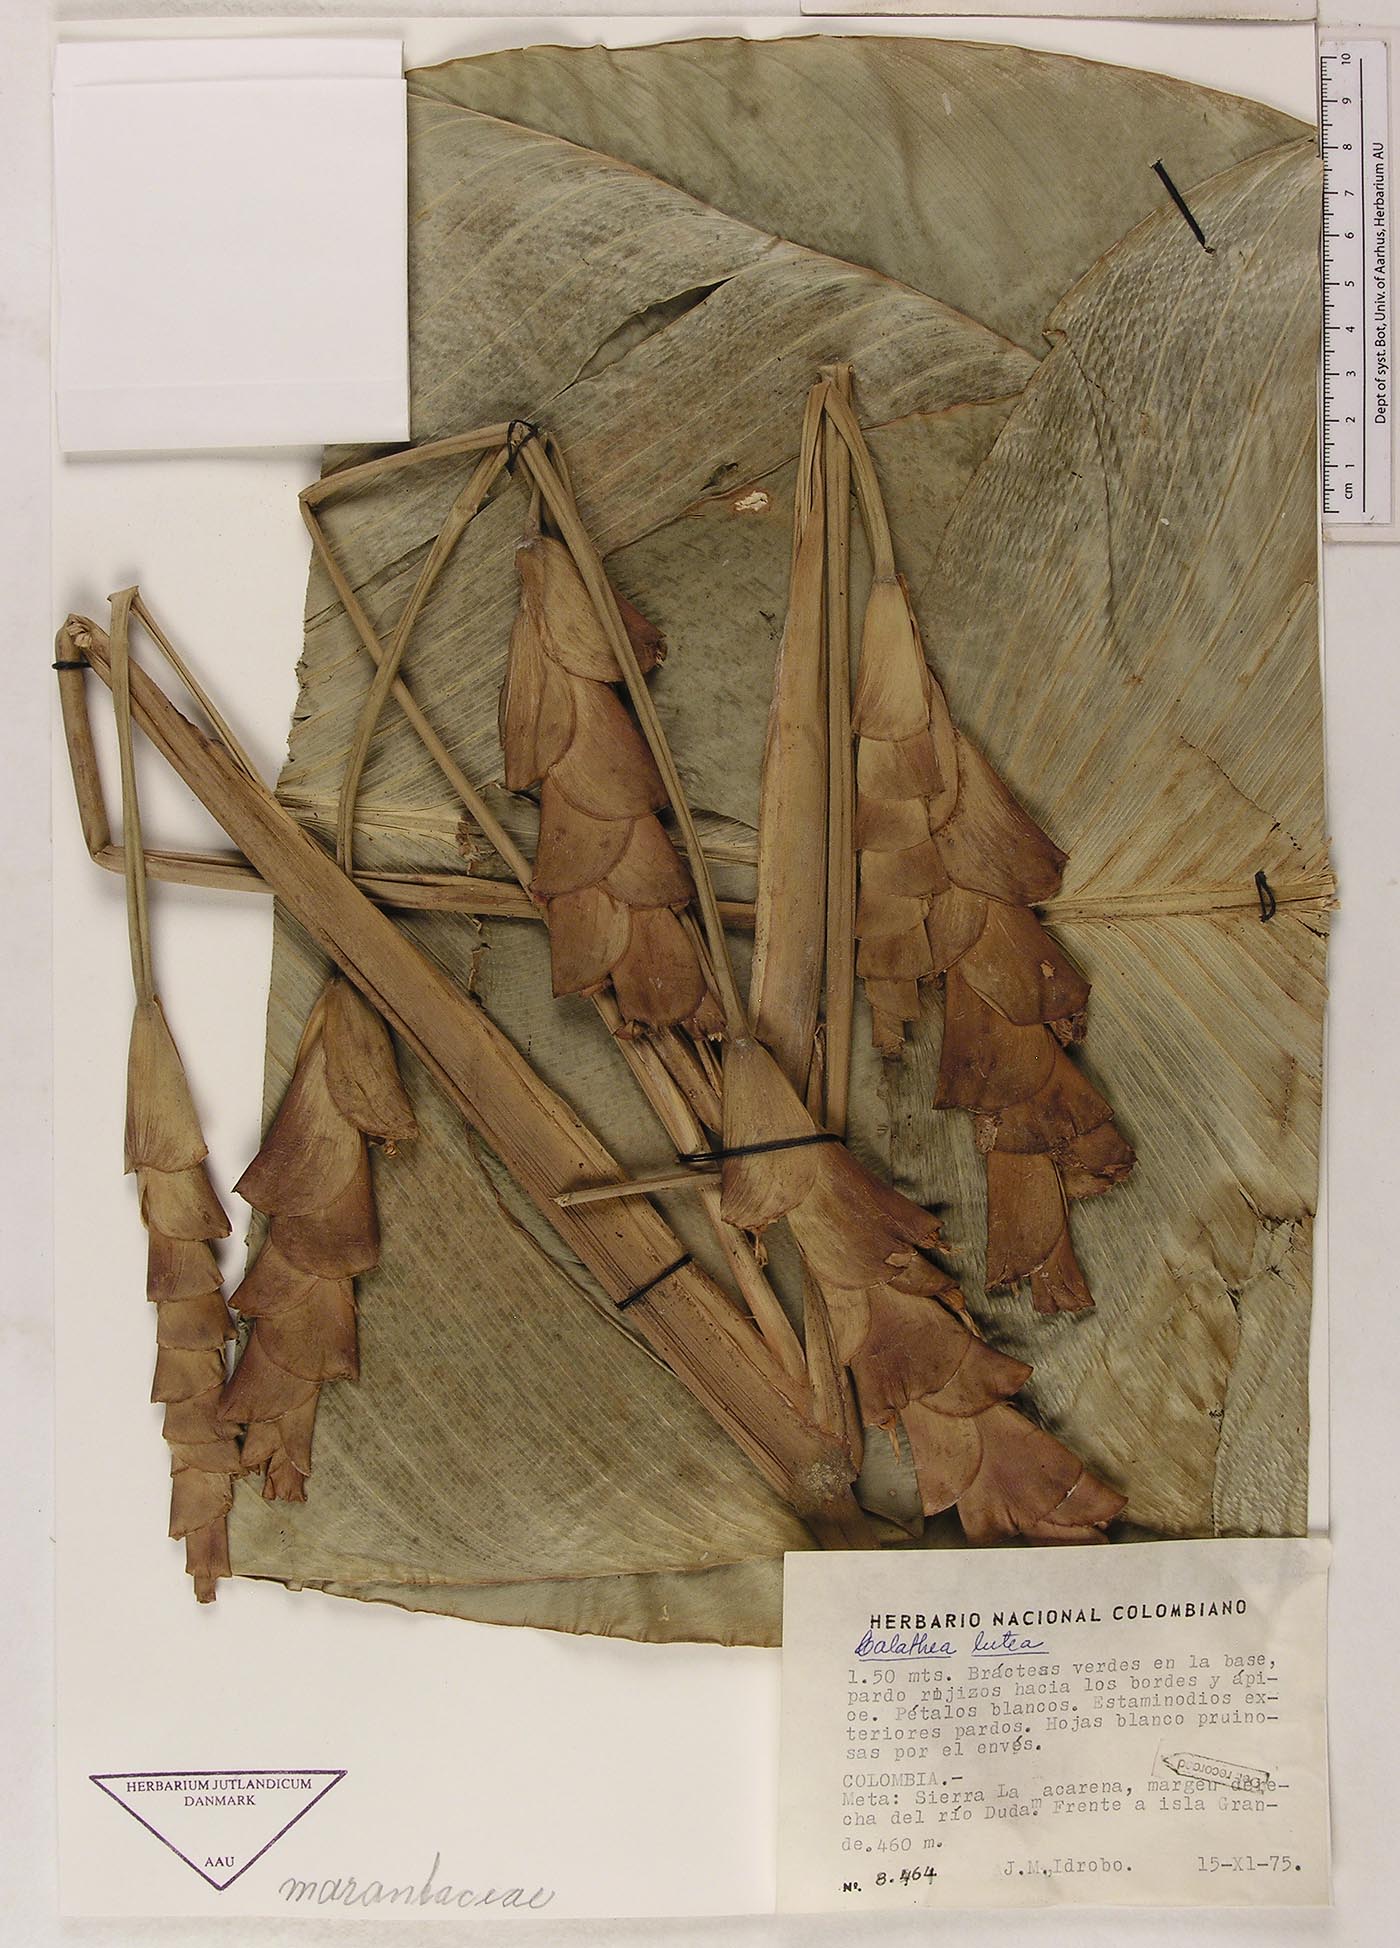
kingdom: Plantae
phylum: Tracheophyta
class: Liliopsida
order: Zingiberales
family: Marantaceae
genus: Calathea
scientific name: Calathea lutea
